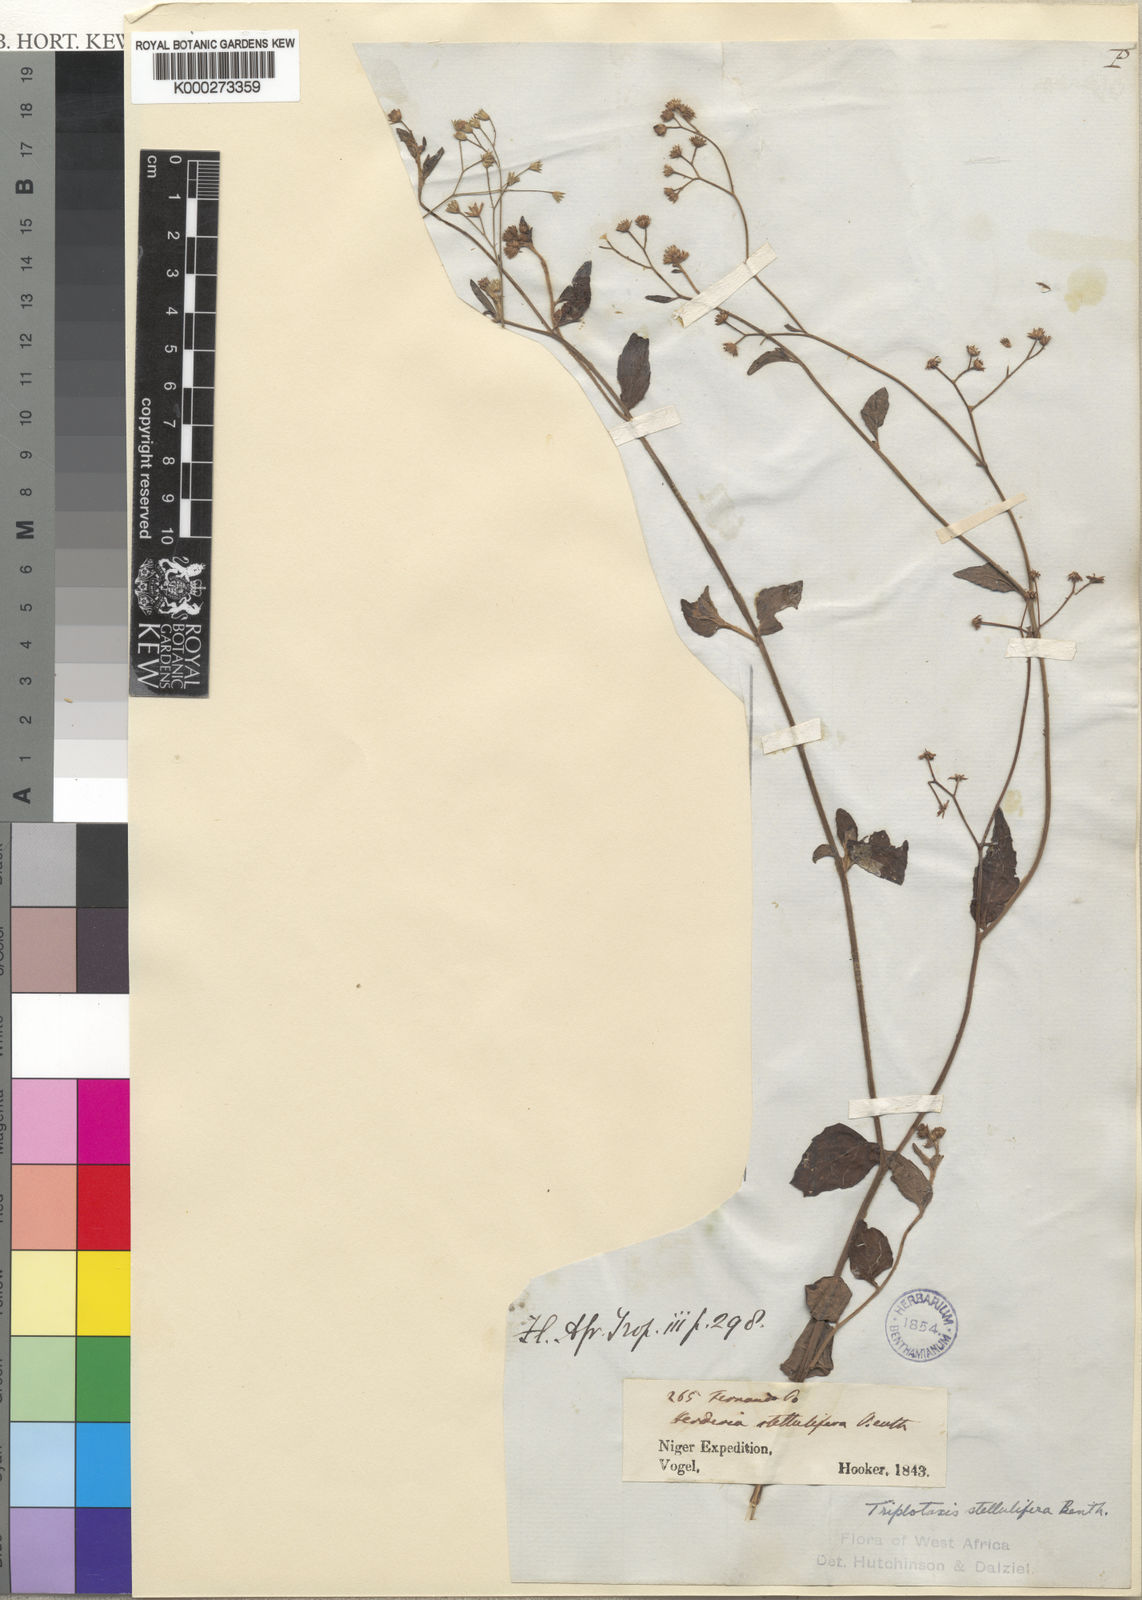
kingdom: Plantae
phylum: Tracheophyta
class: Magnoliopsida
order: Asterales
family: Asteraceae
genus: Cyanthillium
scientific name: Cyanthillium stelluliferum
